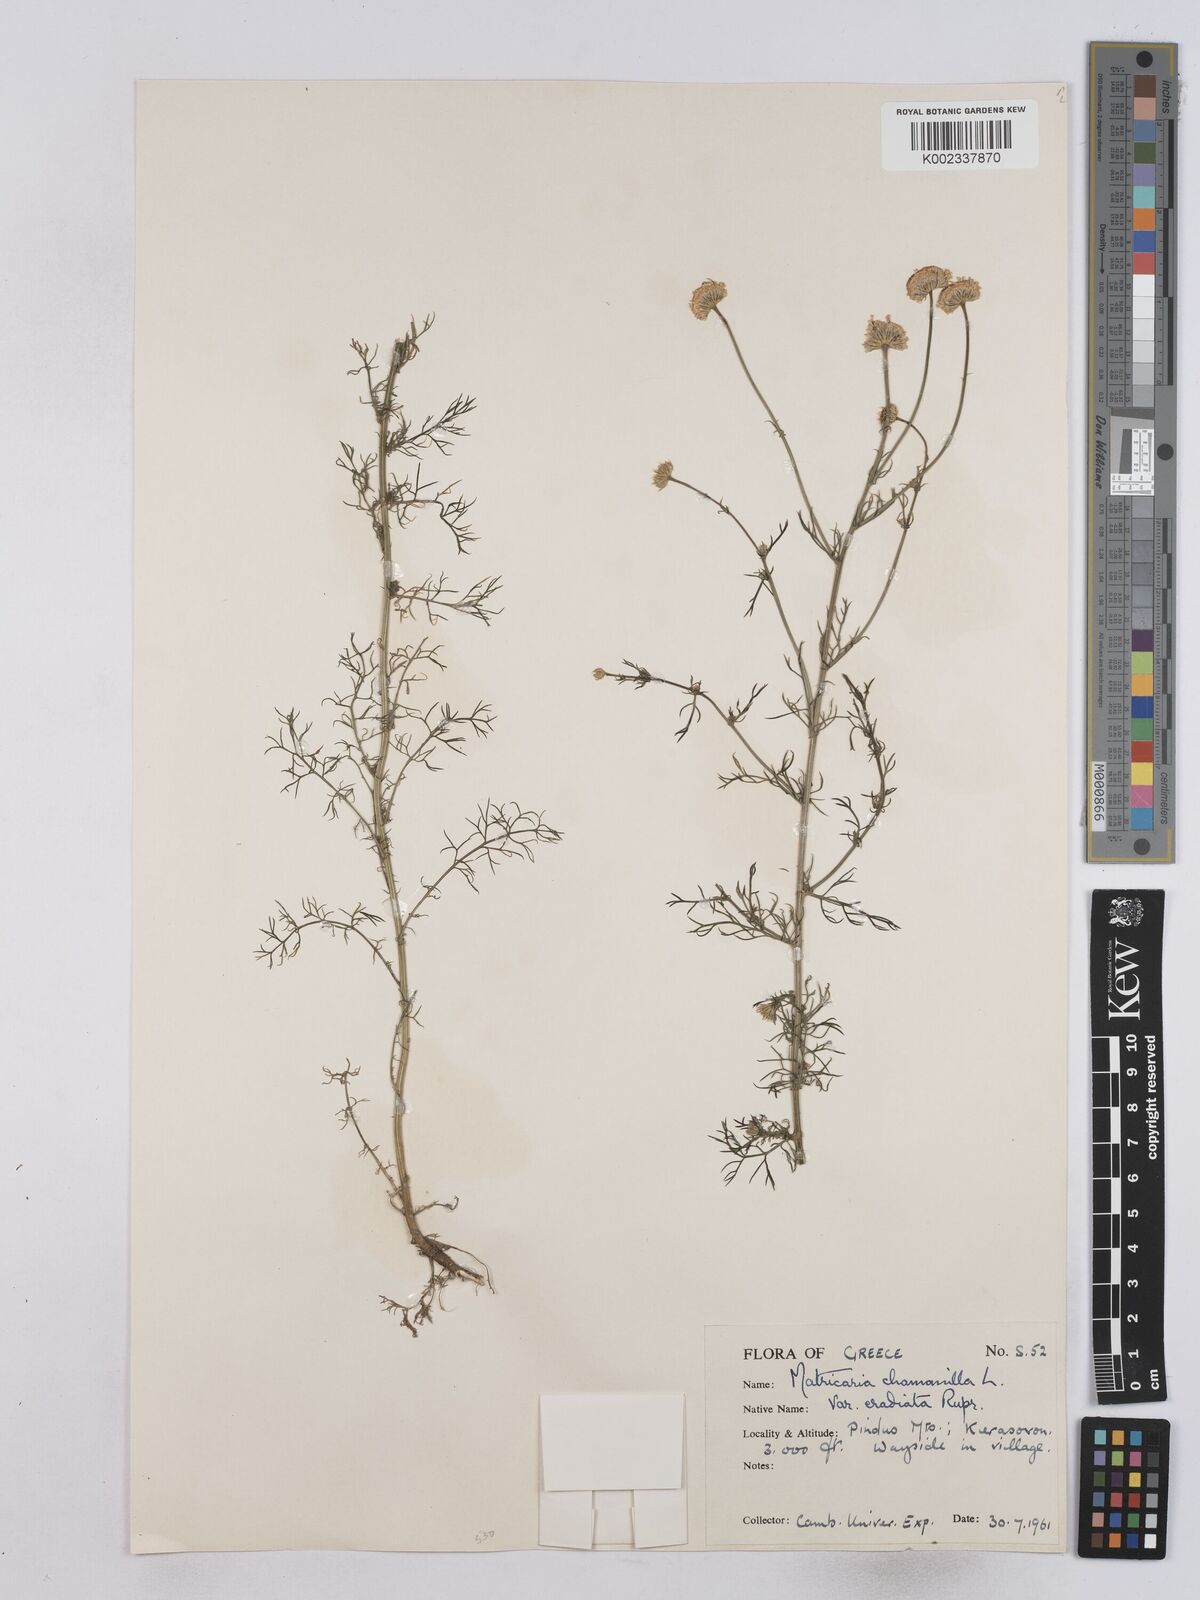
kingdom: Plantae
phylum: Tracheophyta
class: Magnoliopsida
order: Asterales
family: Asteraceae
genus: Matricaria
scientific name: Matricaria chamomilla
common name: Scented mayweed
